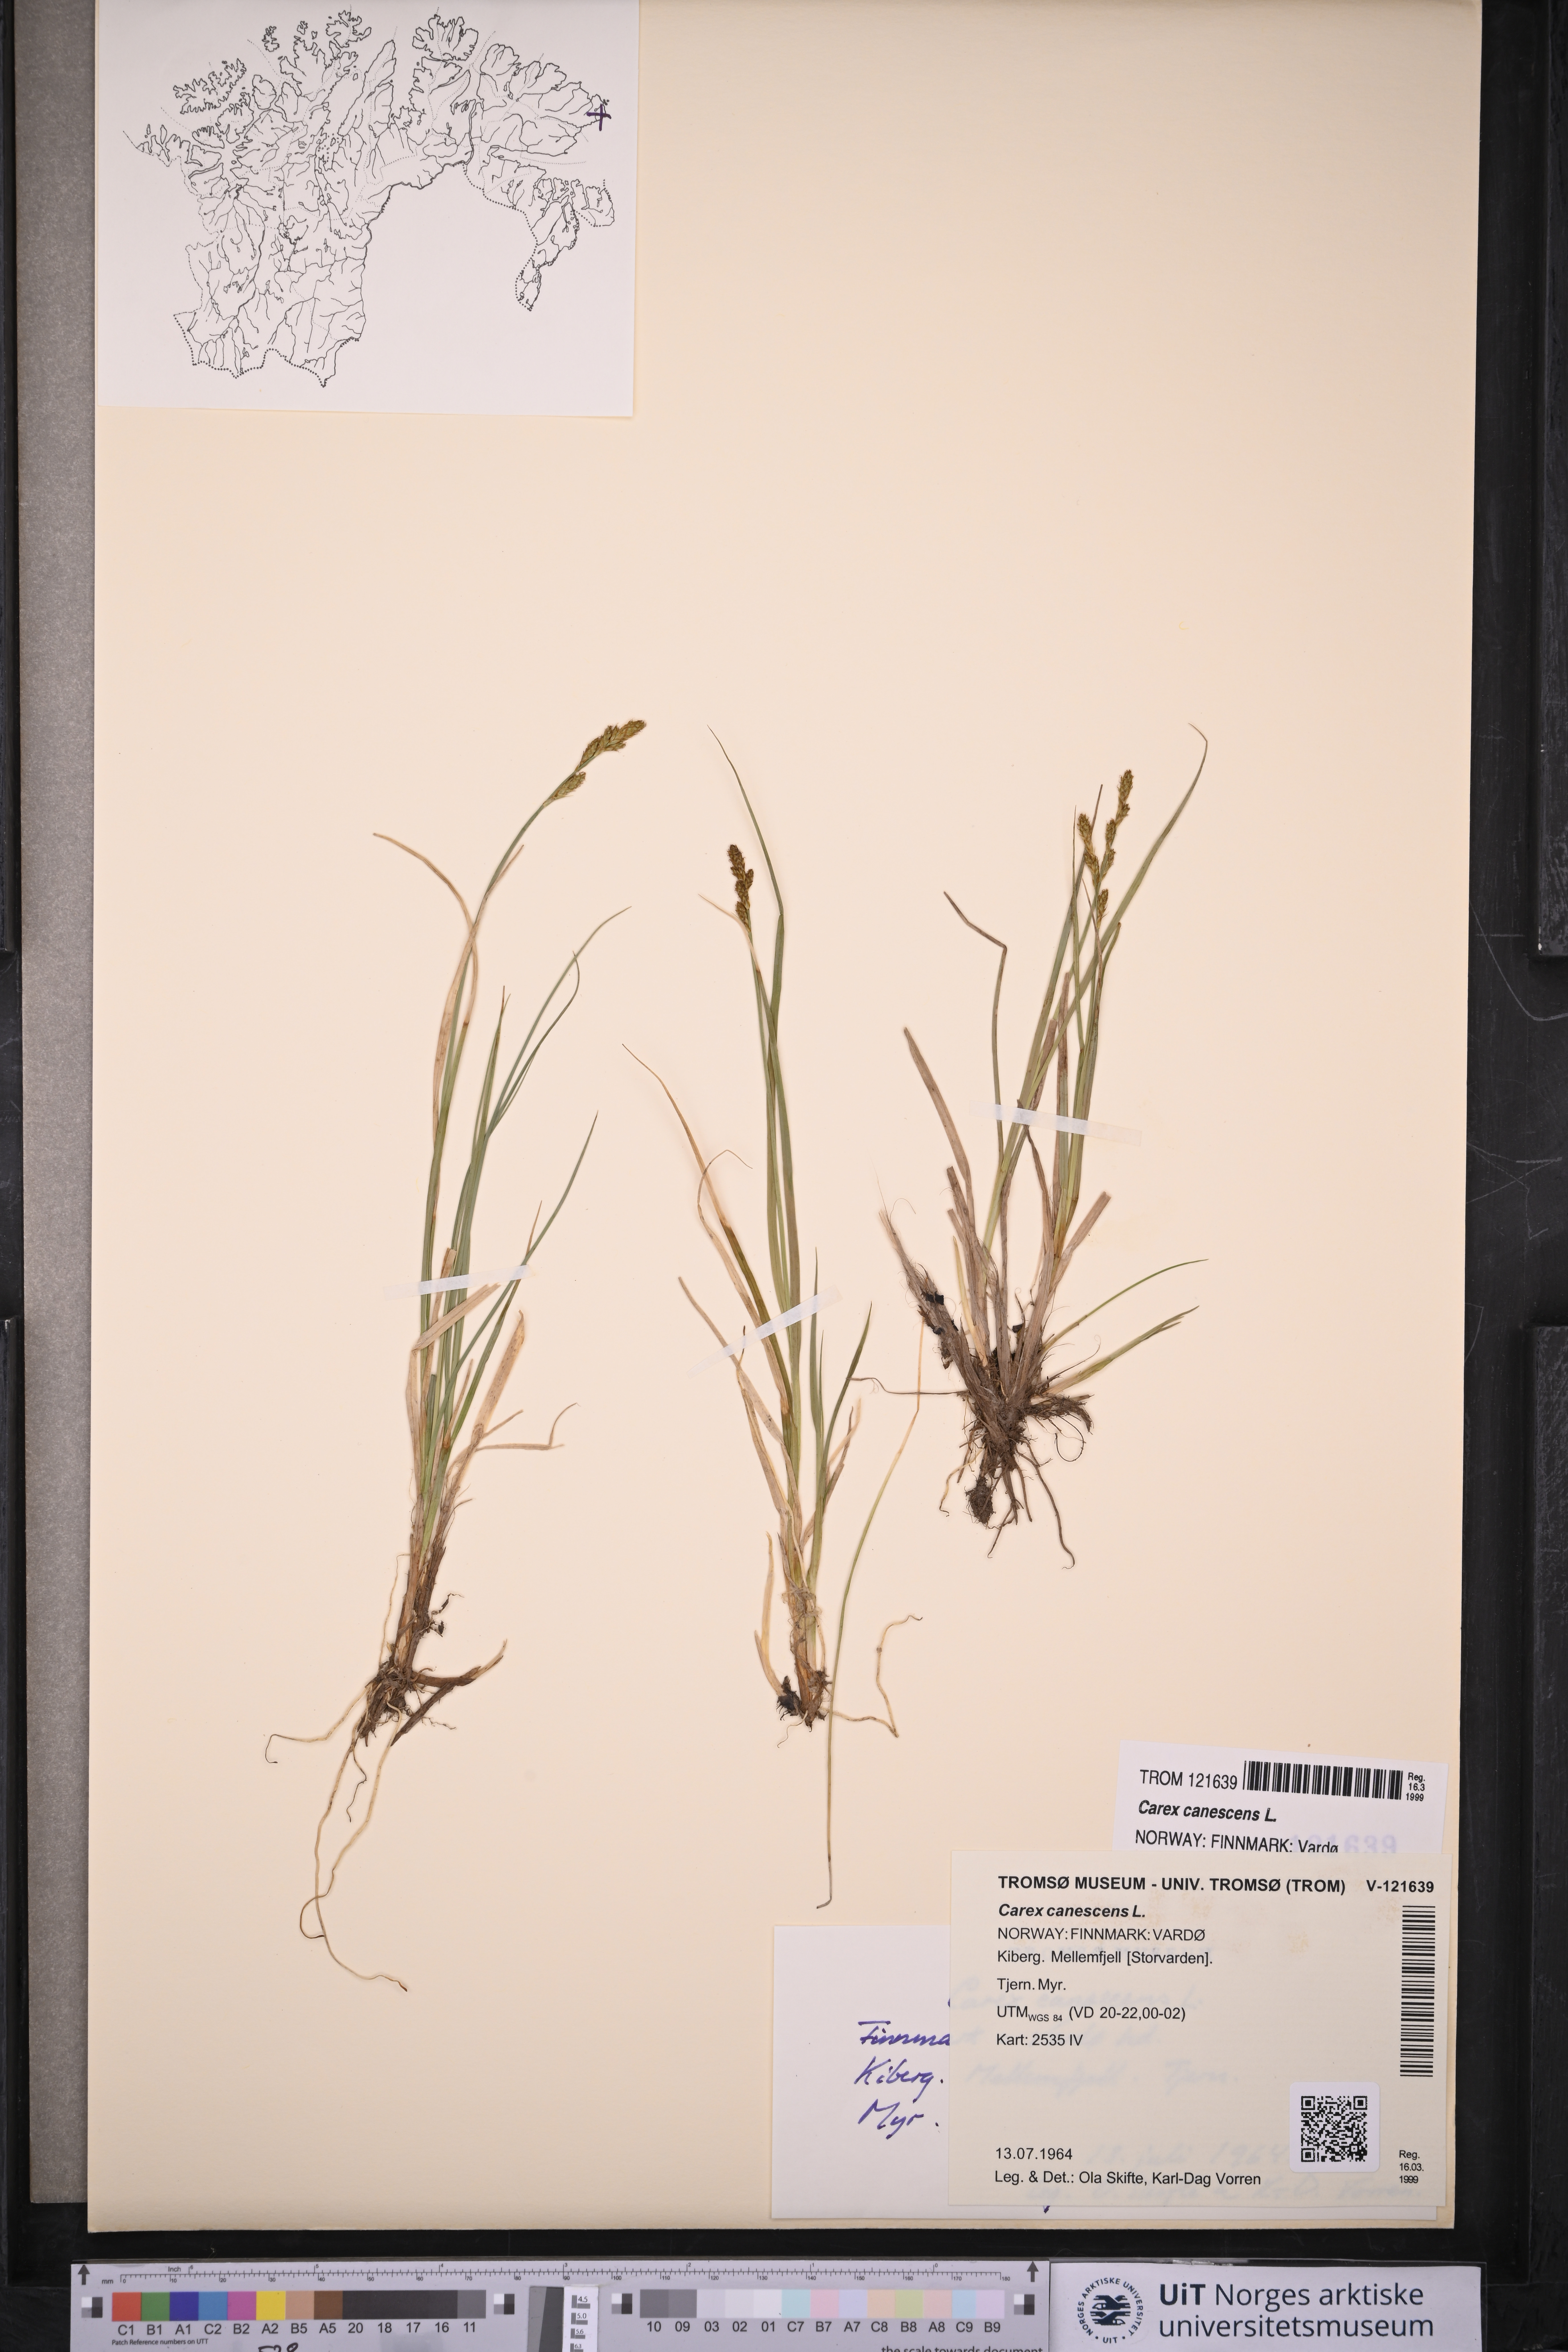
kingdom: Plantae
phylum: Tracheophyta
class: Liliopsida
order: Poales
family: Cyperaceae
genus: Carex
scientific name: Carex canescens
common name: White sedge
